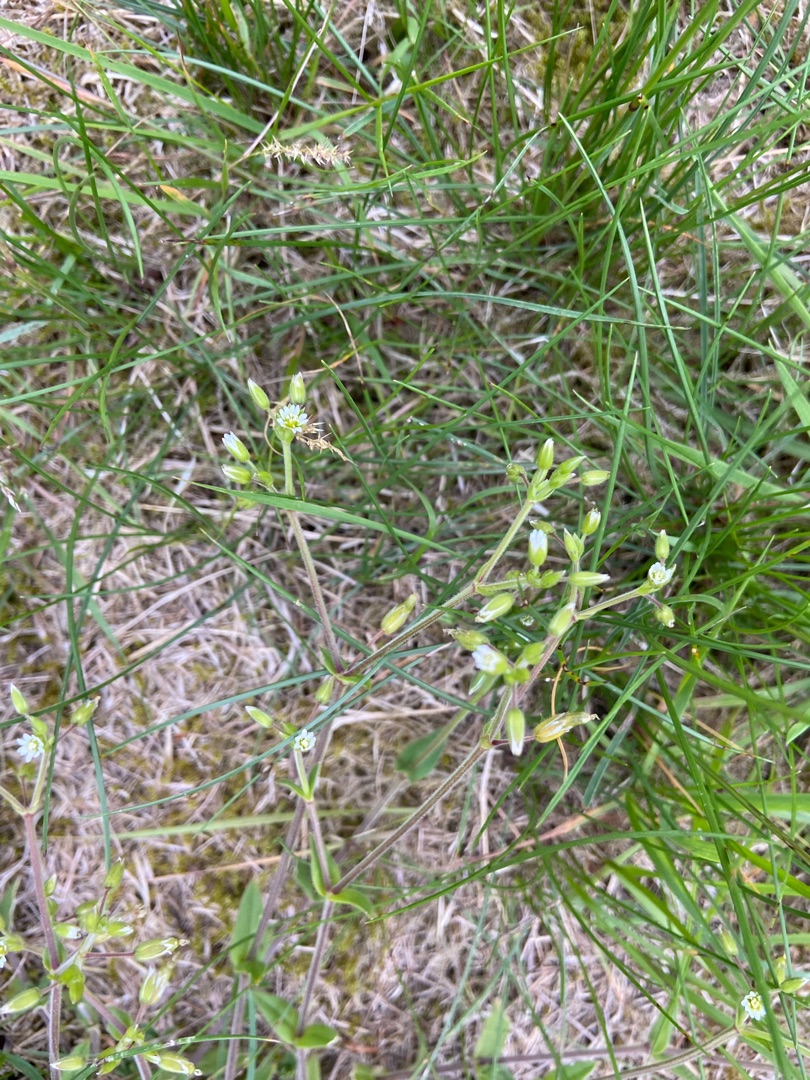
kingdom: Plantae
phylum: Tracheophyta
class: Magnoliopsida
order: Caryophyllales
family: Caryophyllaceae
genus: Cerastium
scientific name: Cerastium fontanum
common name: Almindelig hønsetarm
